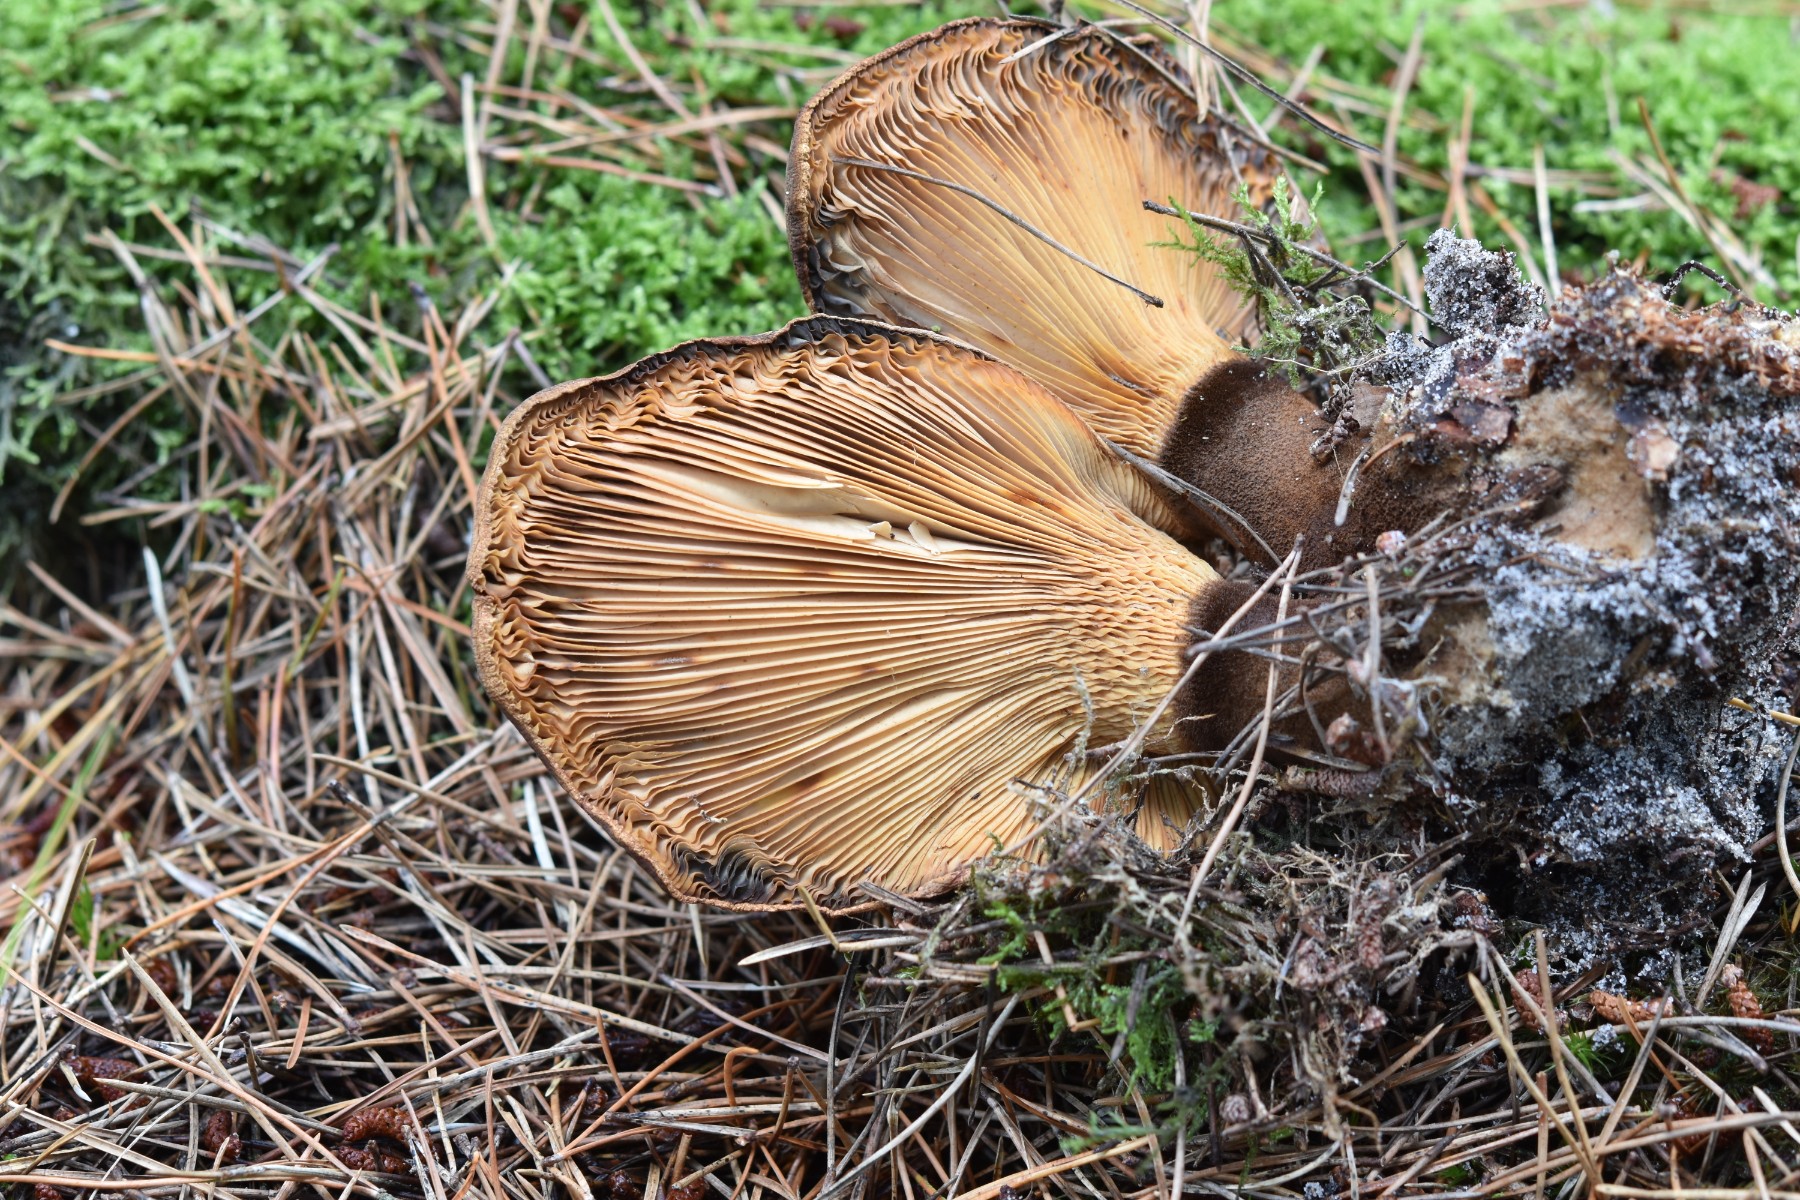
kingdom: Fungi
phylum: Basidiomycota
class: Agaricomycetes
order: Boletales
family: Tapinellaceae
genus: Tapinella
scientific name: Tapinella atrotomentosa
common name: sortfiltet viftesvamp
